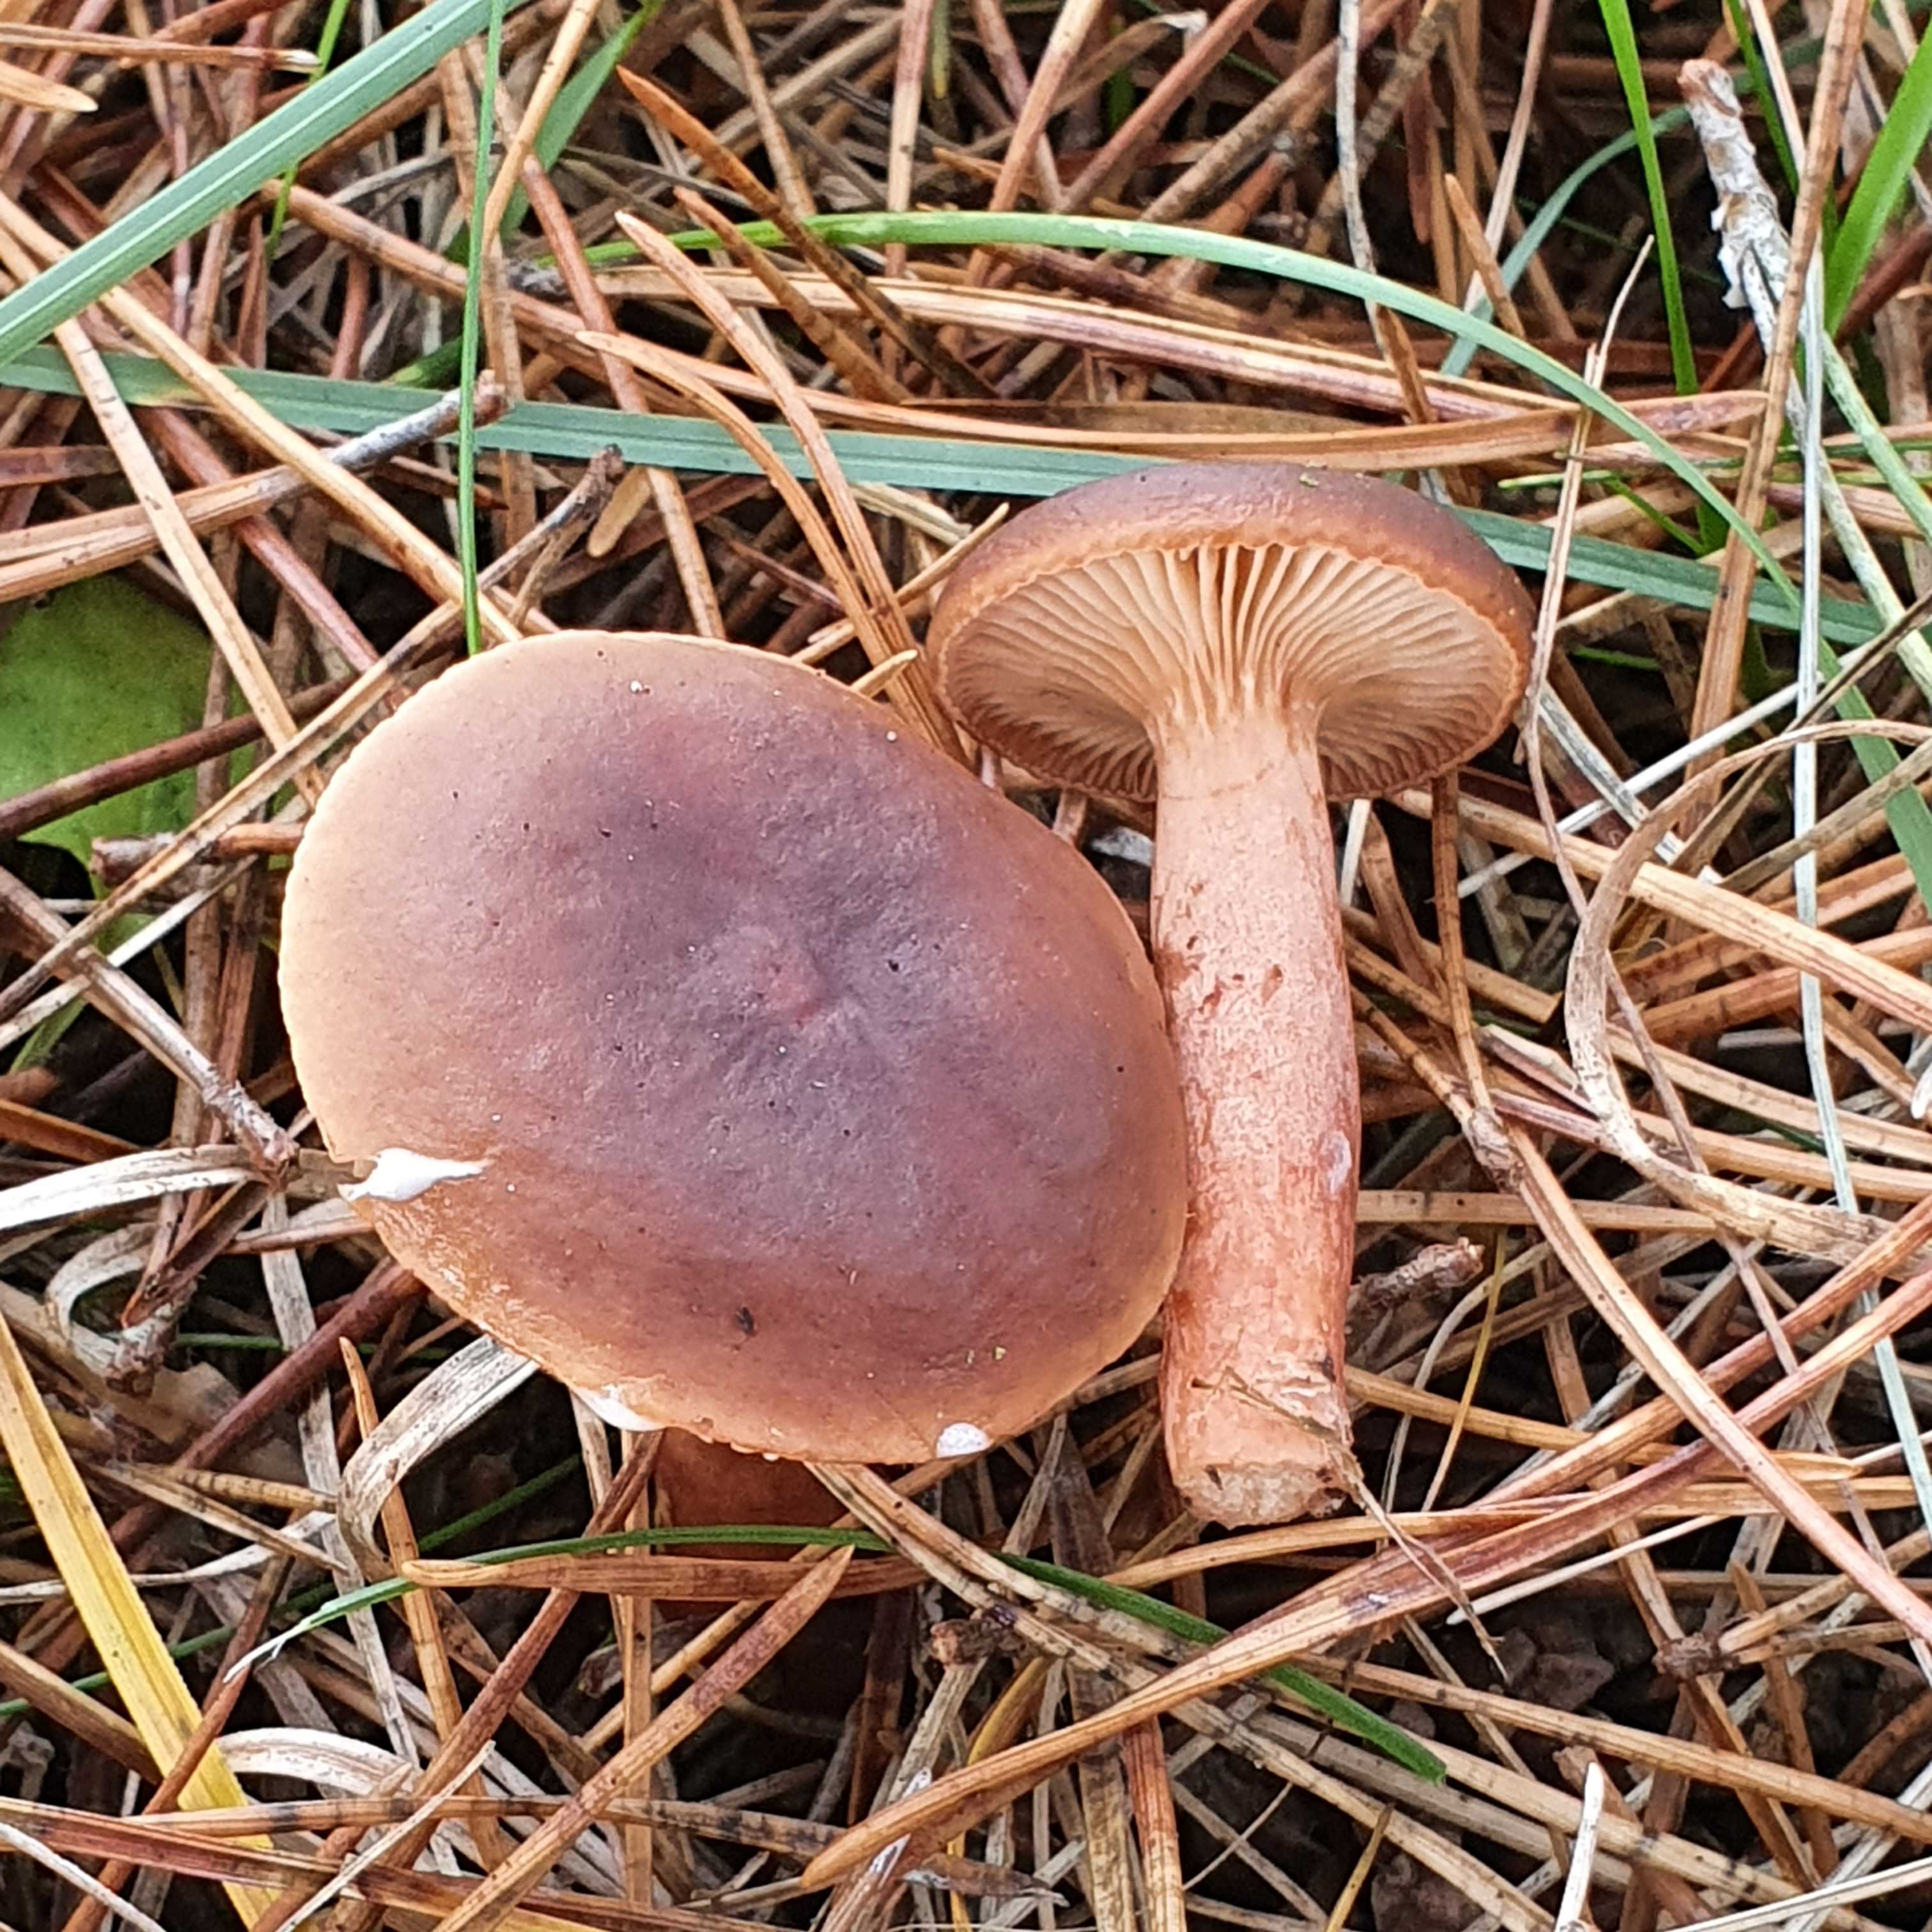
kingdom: Fungi
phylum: Basidiomycota
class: Agaricomycetes
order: Russulales
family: Russulaceae
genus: Lactarius
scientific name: Lactarius hepaticus
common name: leverbrun mælkehat
